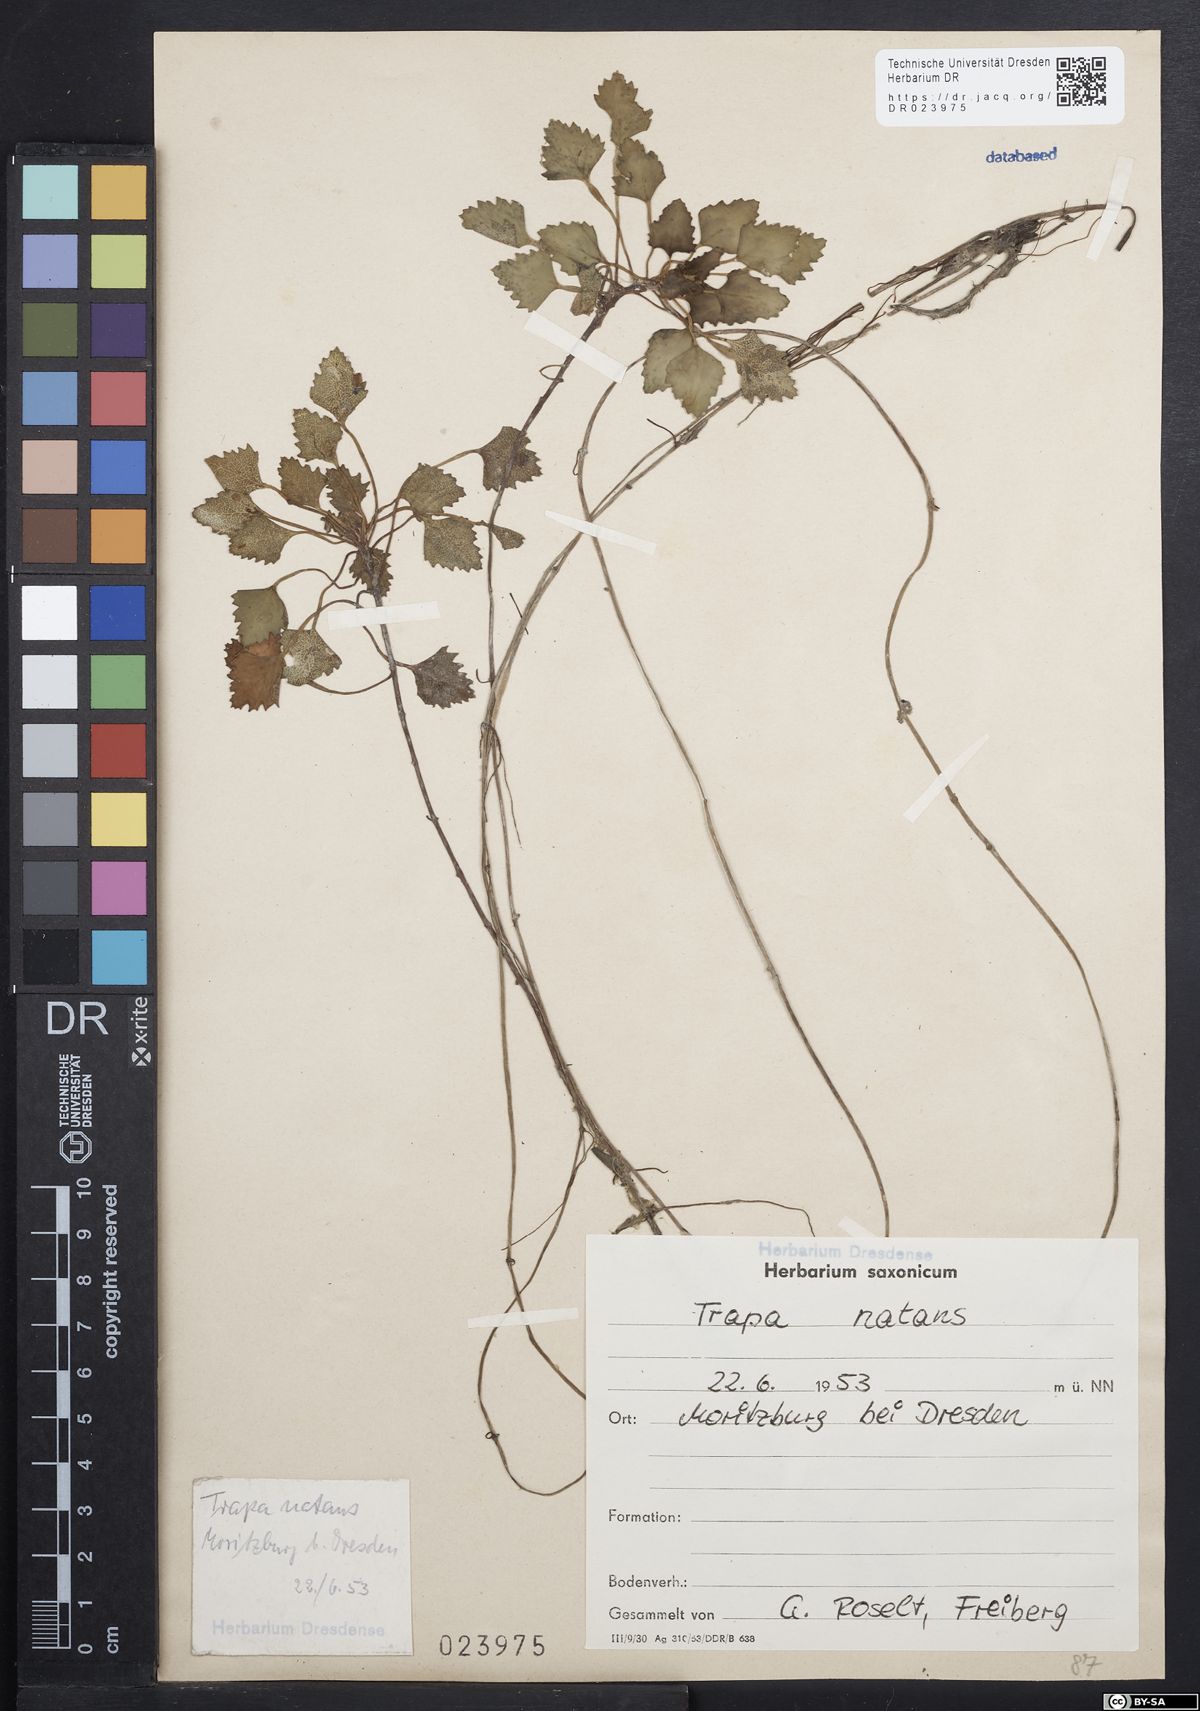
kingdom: Plantae
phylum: Tracheophyta
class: Magnoliopsida
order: Myrtales
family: Lythraceae
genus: Trapa
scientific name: Trapa natans
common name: Water chestnut
